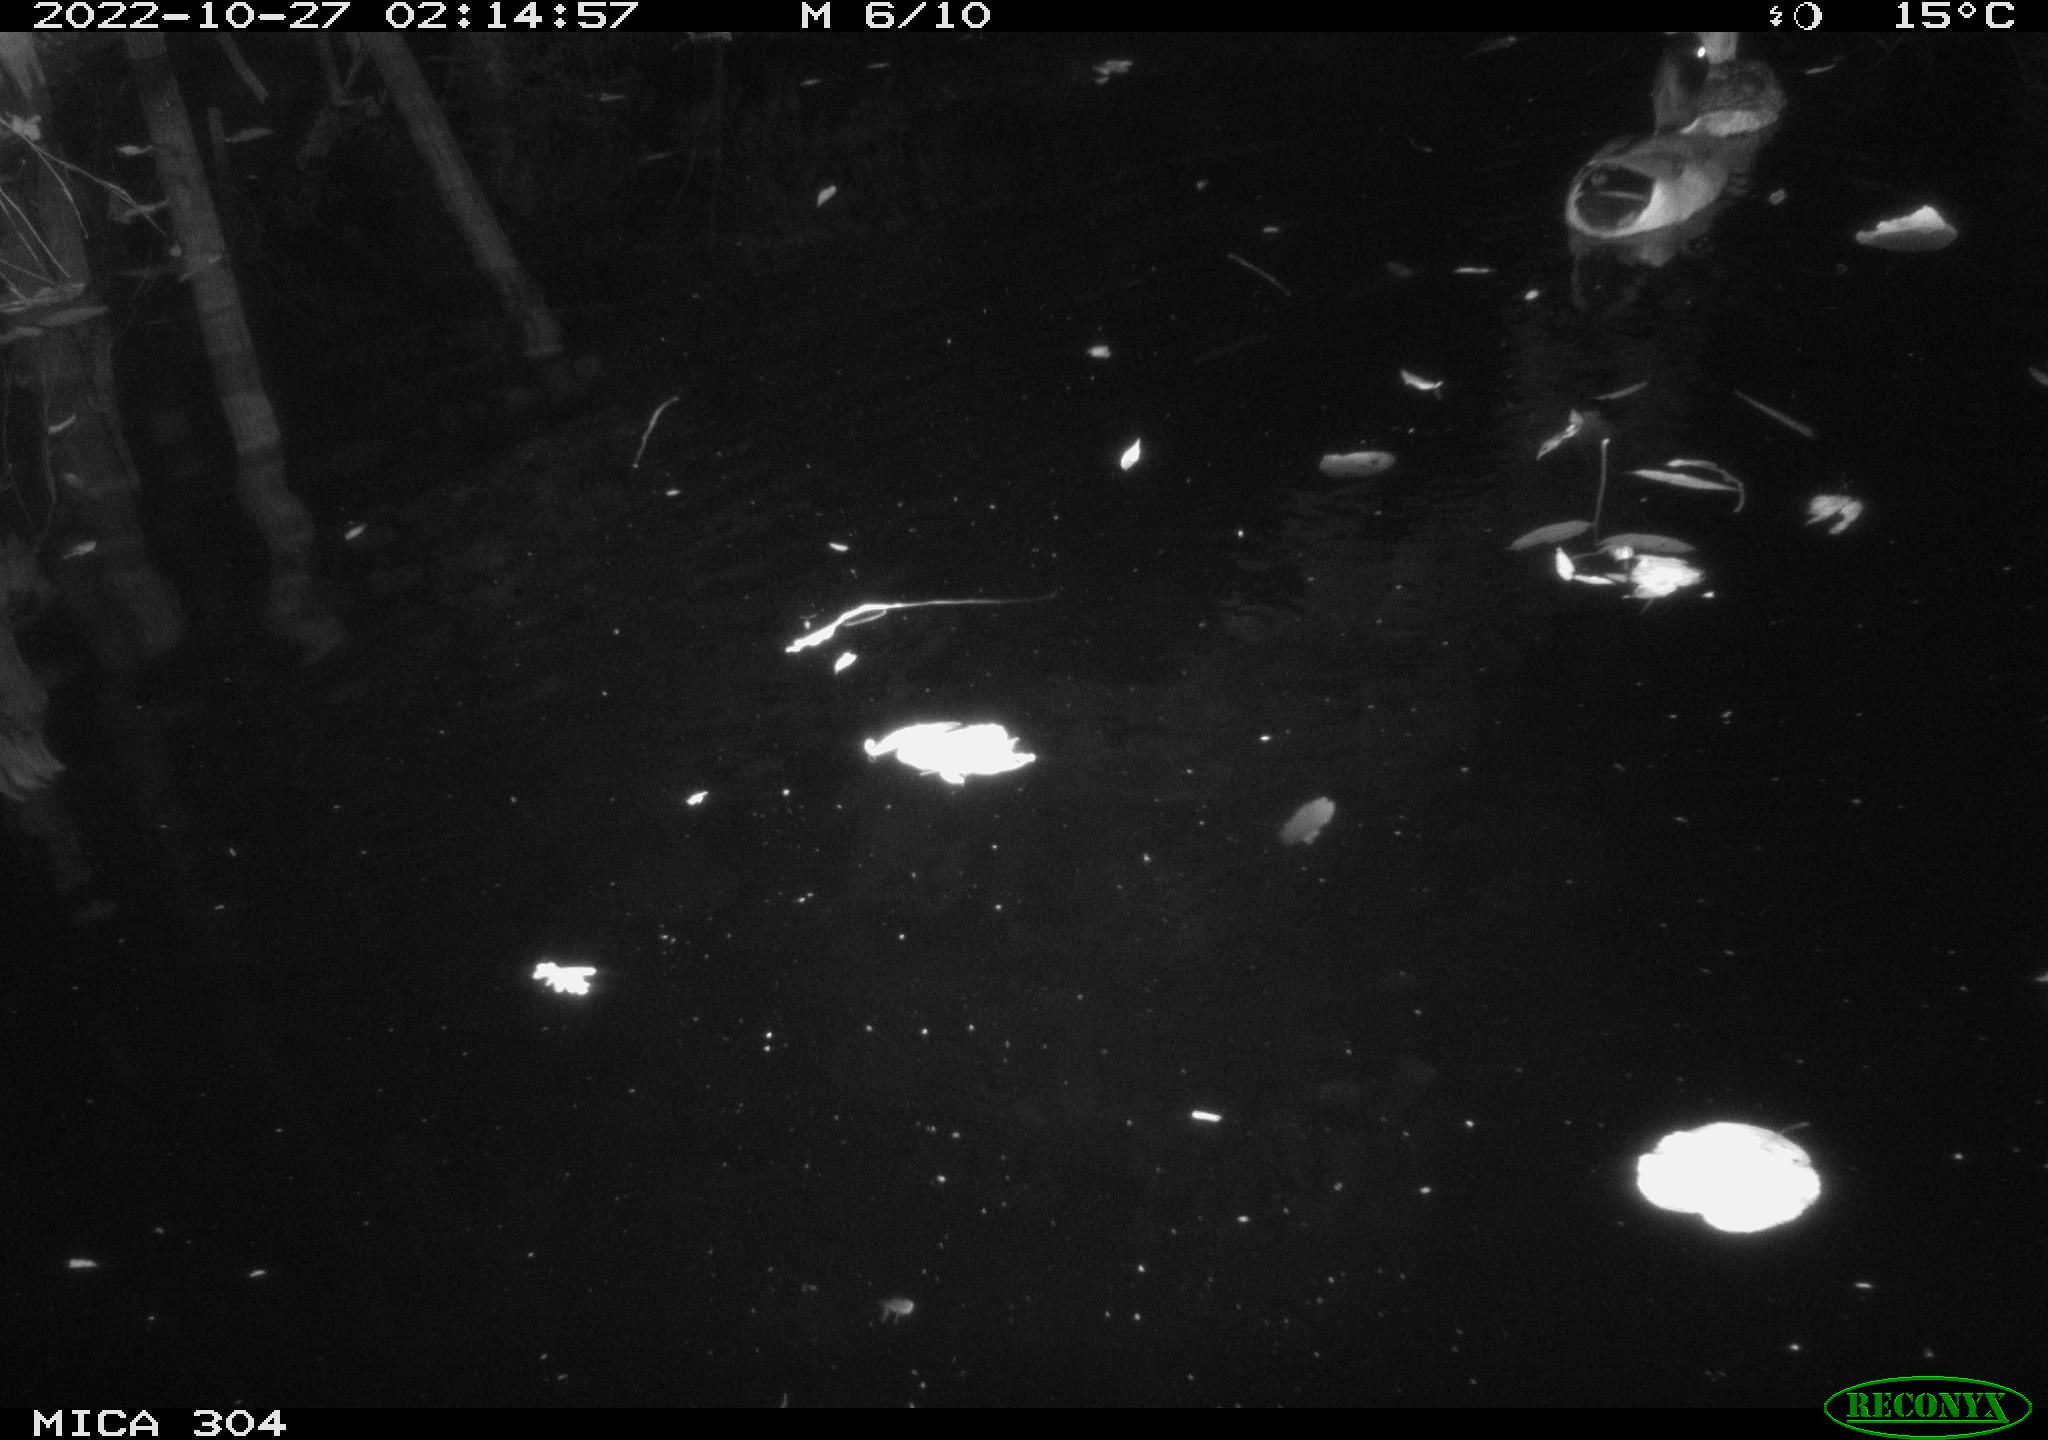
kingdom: Animalia
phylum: Chordata
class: Aves
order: Anseriformes
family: Anatidae
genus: Anas
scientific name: Anas
